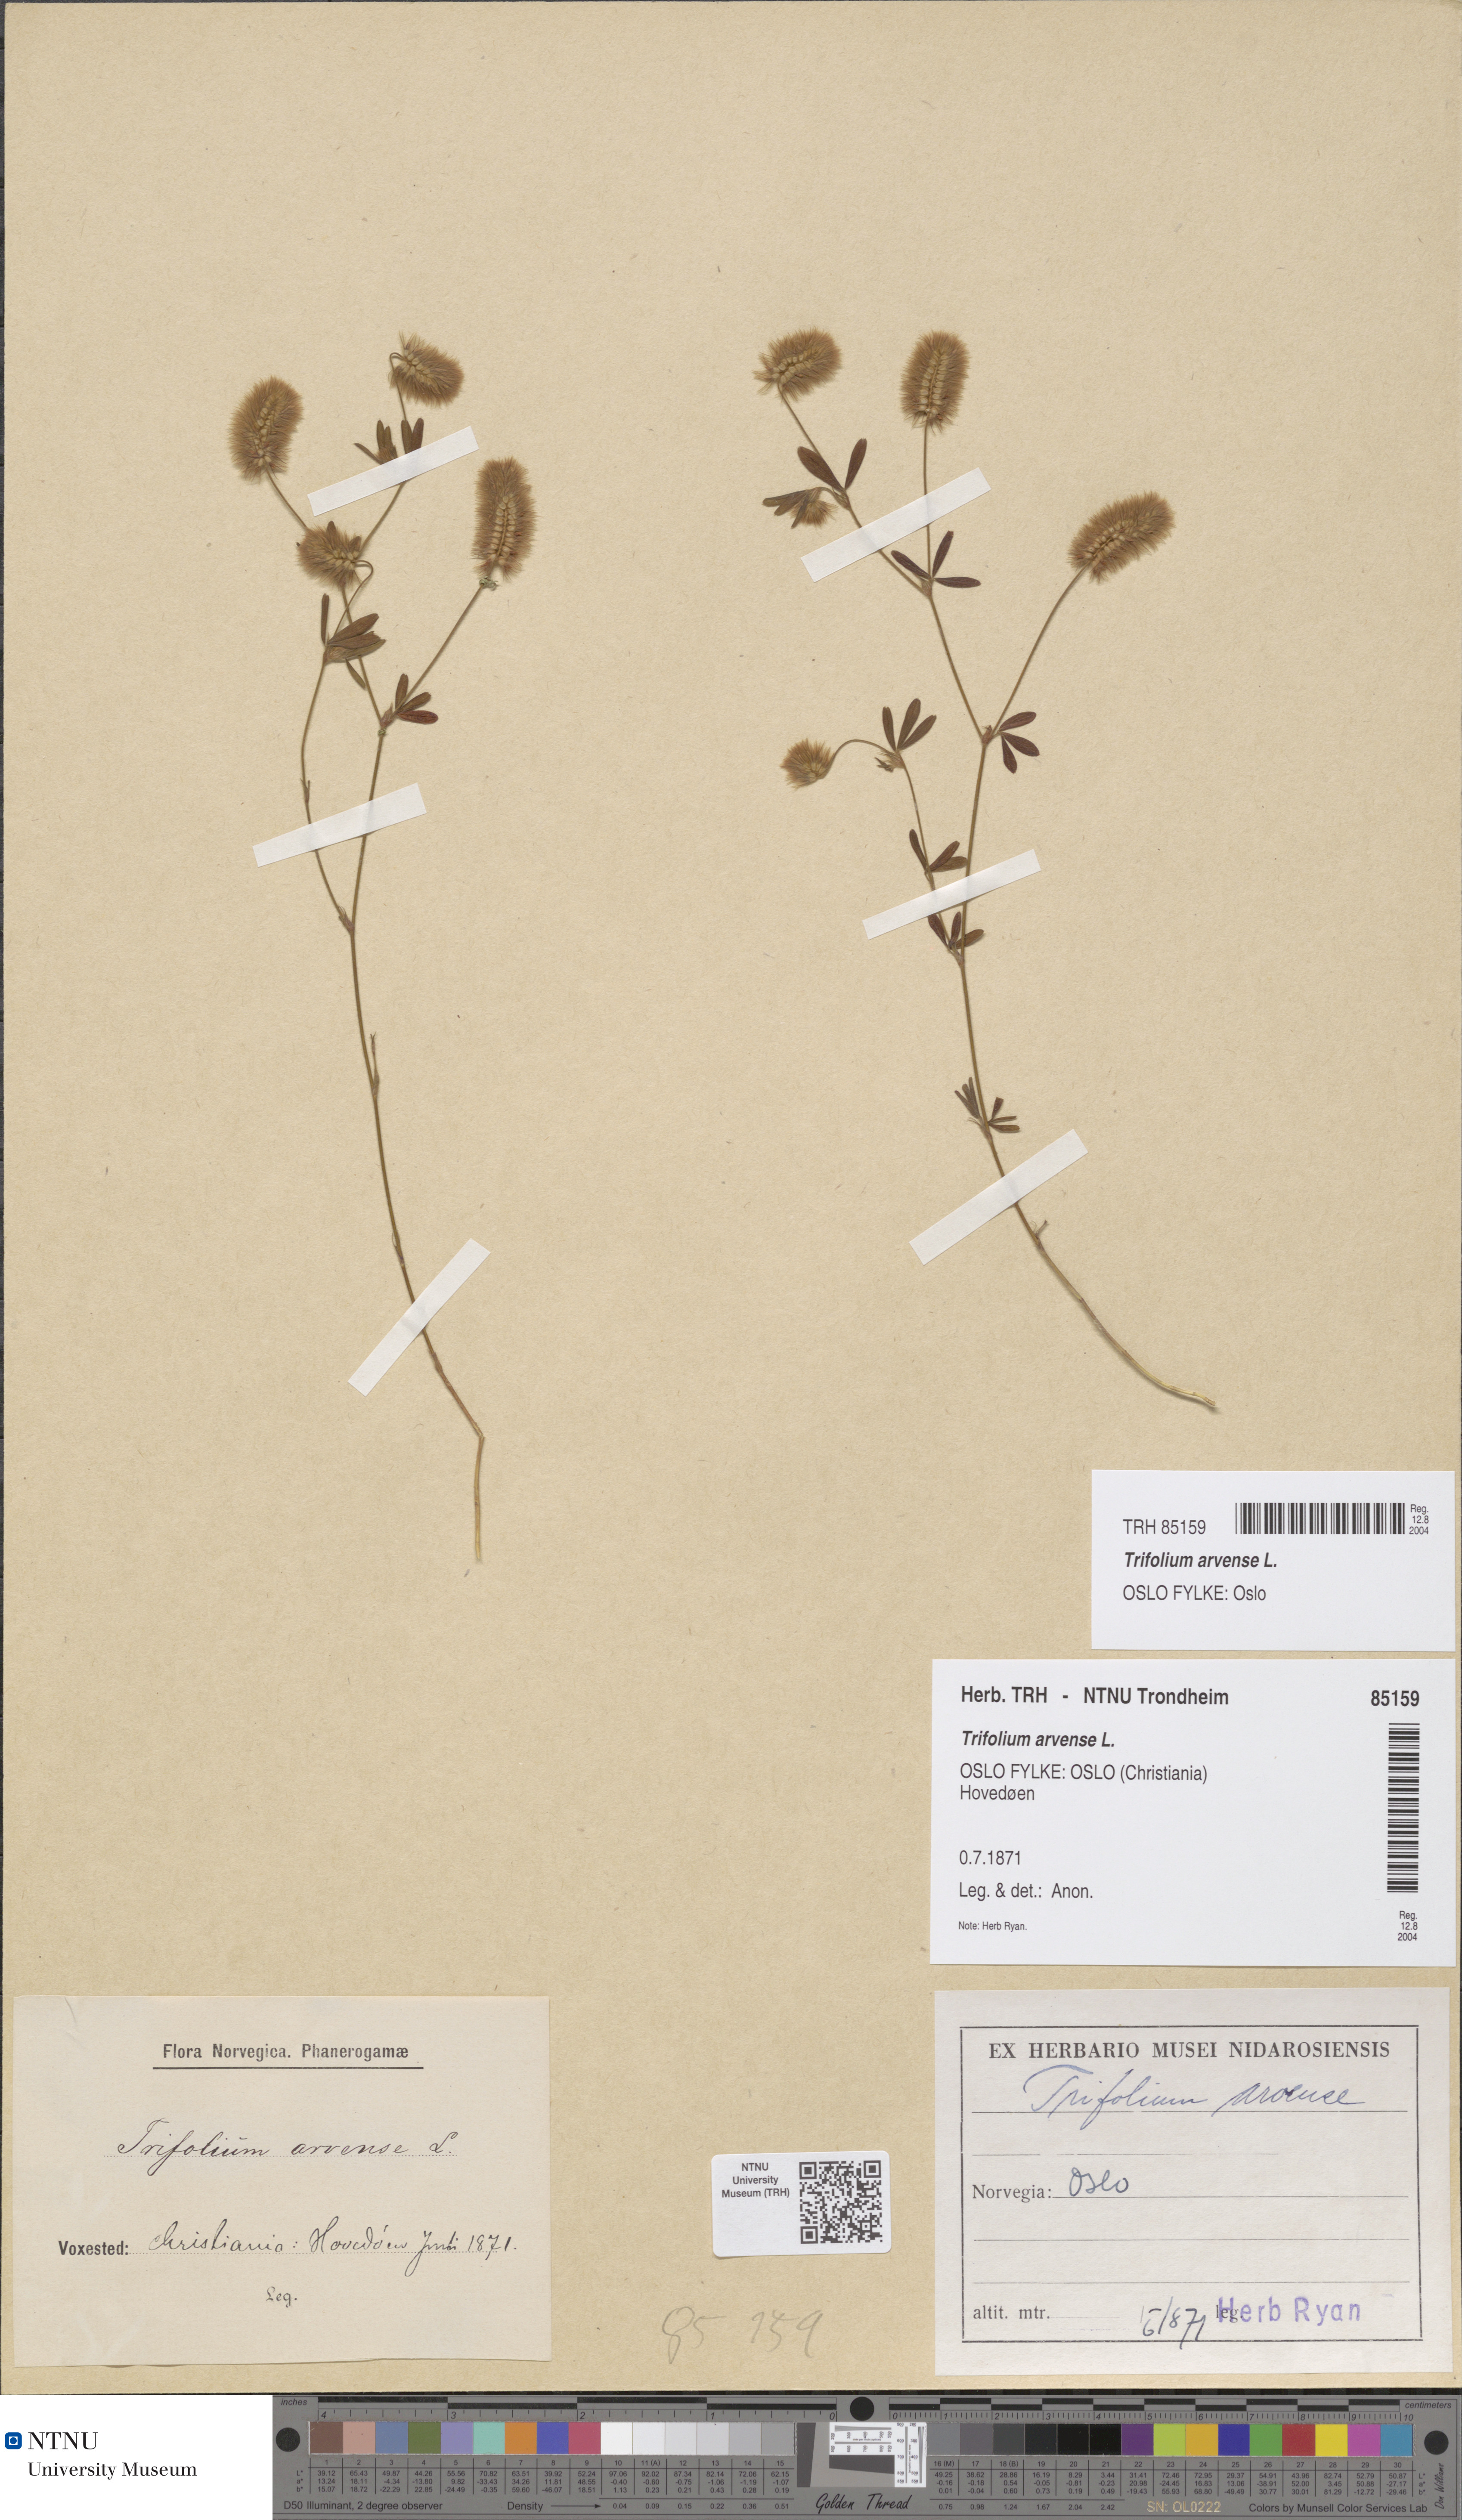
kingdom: Plantae
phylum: Tracheophyta
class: Magnoliopsida
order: Fabales
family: Fabaceae
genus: Trifolium
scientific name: Trifolium arvense
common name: Hare's-foot clover
